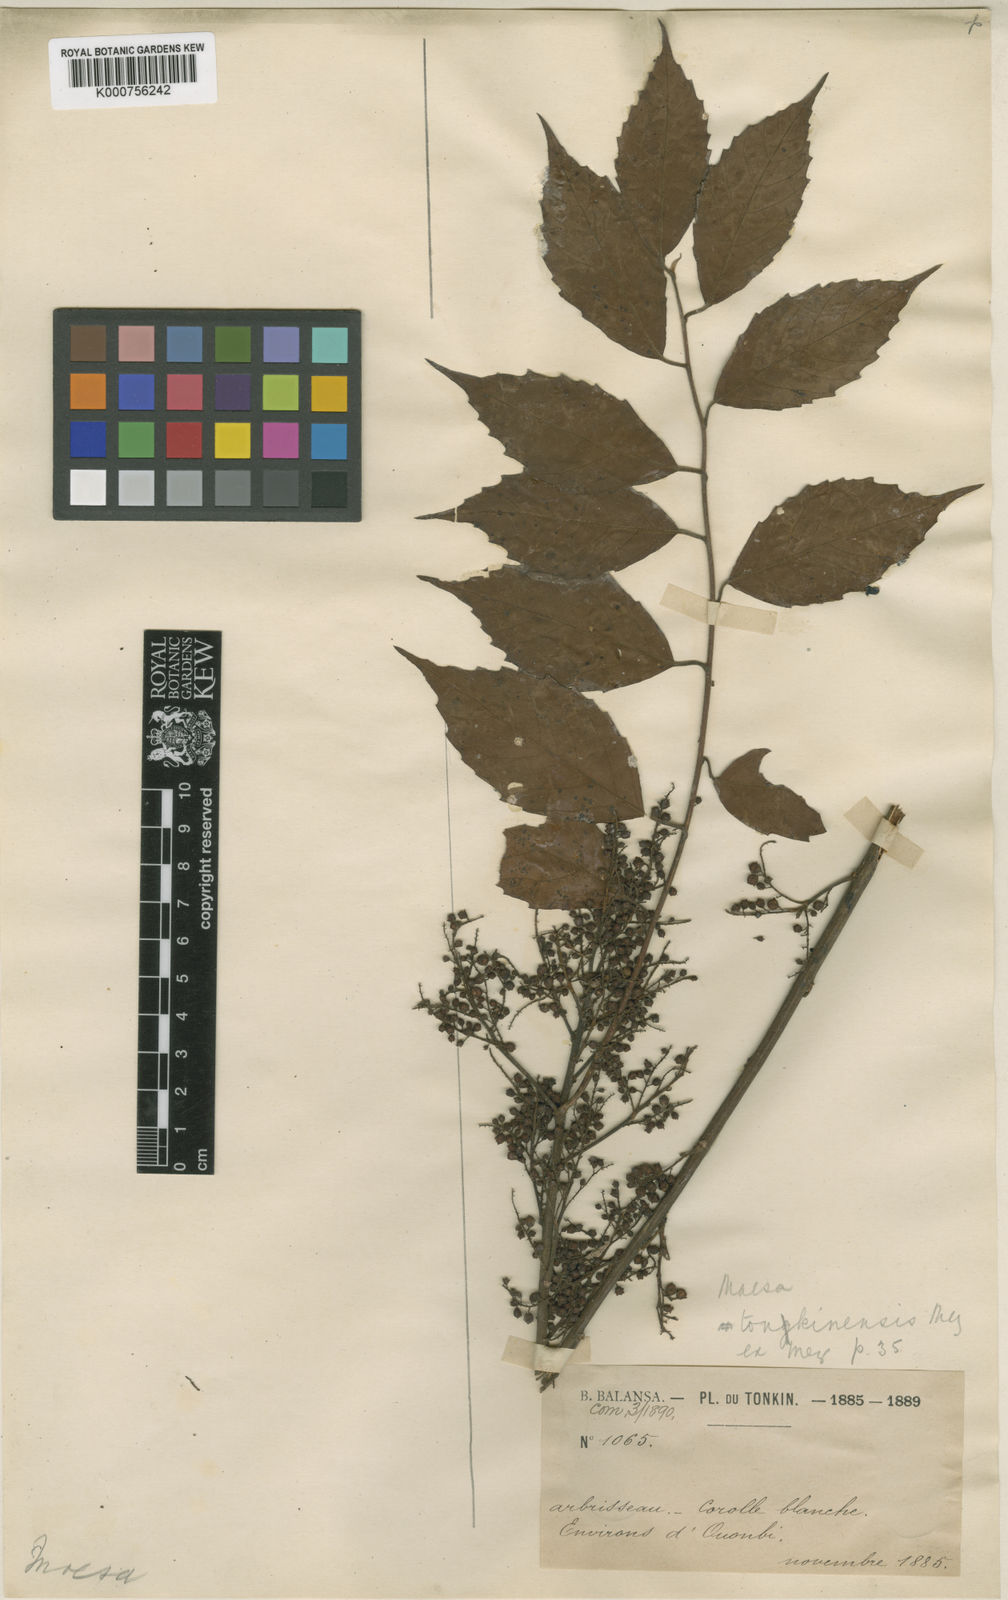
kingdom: Plantae
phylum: Tracheophyta
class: Magnoliopsida
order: Ericales
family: Primulaceae
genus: Maesa
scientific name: Maesa perlaria
